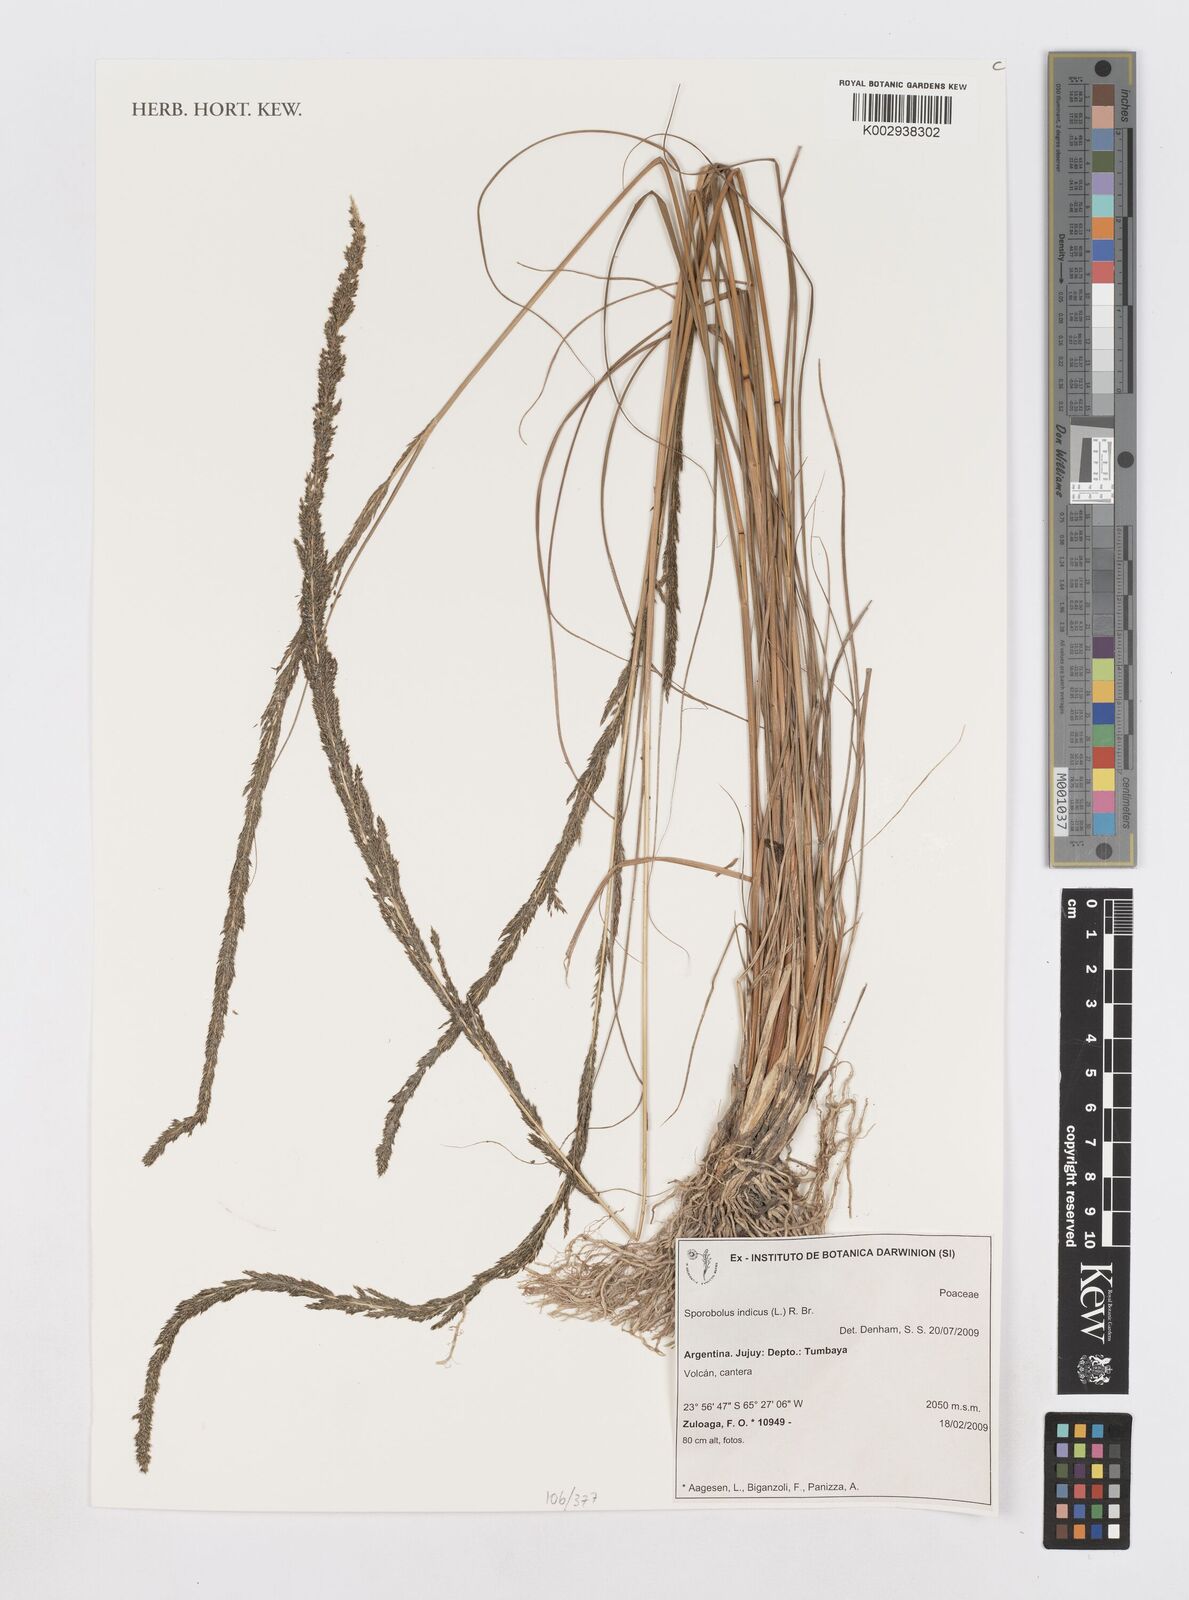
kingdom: Plantae
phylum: Tracheophyta
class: Liliopsida
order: Poales
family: Poaceae
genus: Sporobolus
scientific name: Sporobolus indicus
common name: Smut grass
